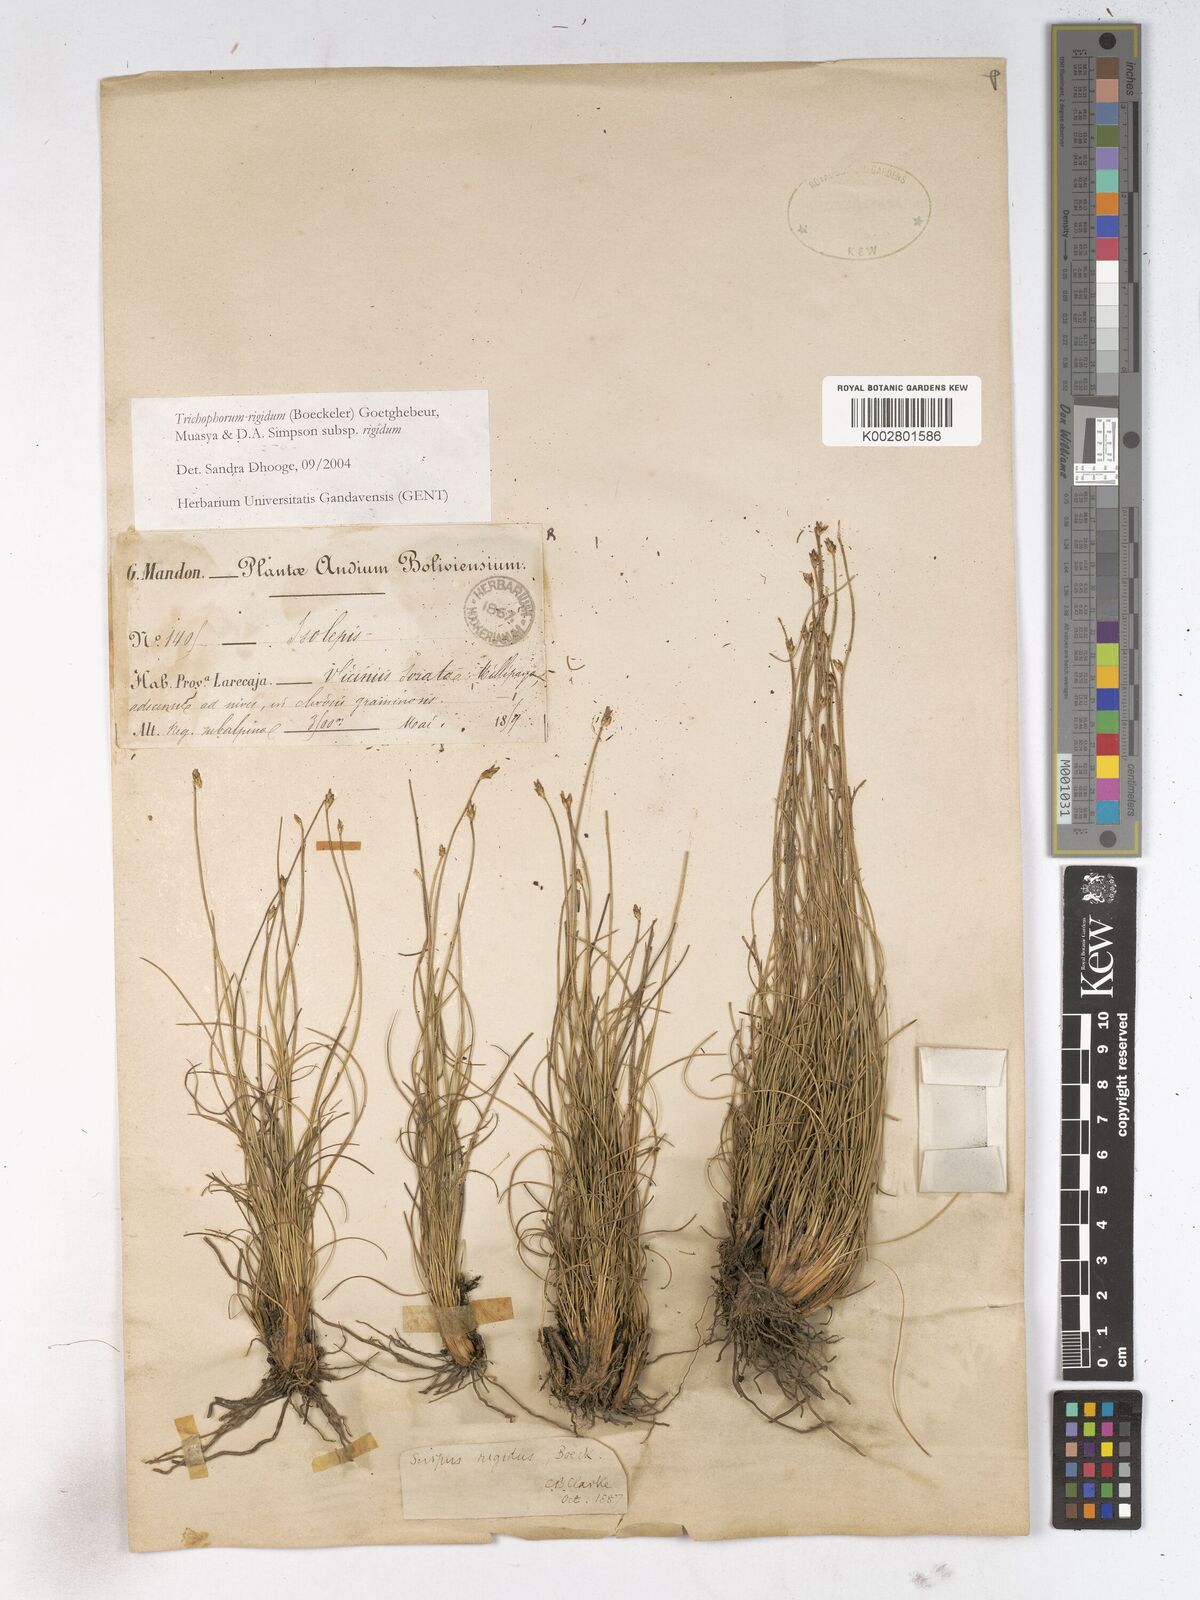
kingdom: Plantae
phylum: Tracheophyta
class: Liliopsida
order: Poales
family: Cyperaceae
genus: Trichophorum
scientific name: Trichophorum rigidum
